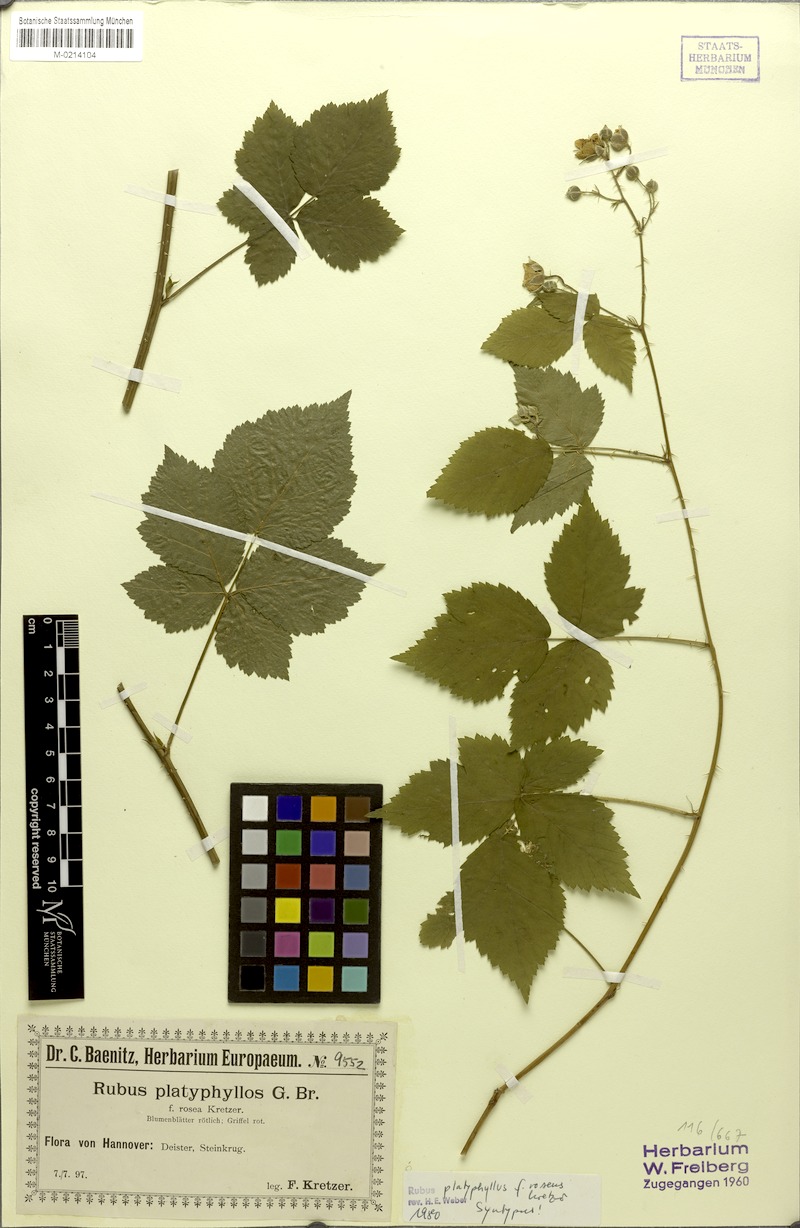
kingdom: Plantae
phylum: Tracheophyta
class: Magnoliopsida
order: Rosales
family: Rosaceae
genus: Rubus
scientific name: Rubus platyphyllos
